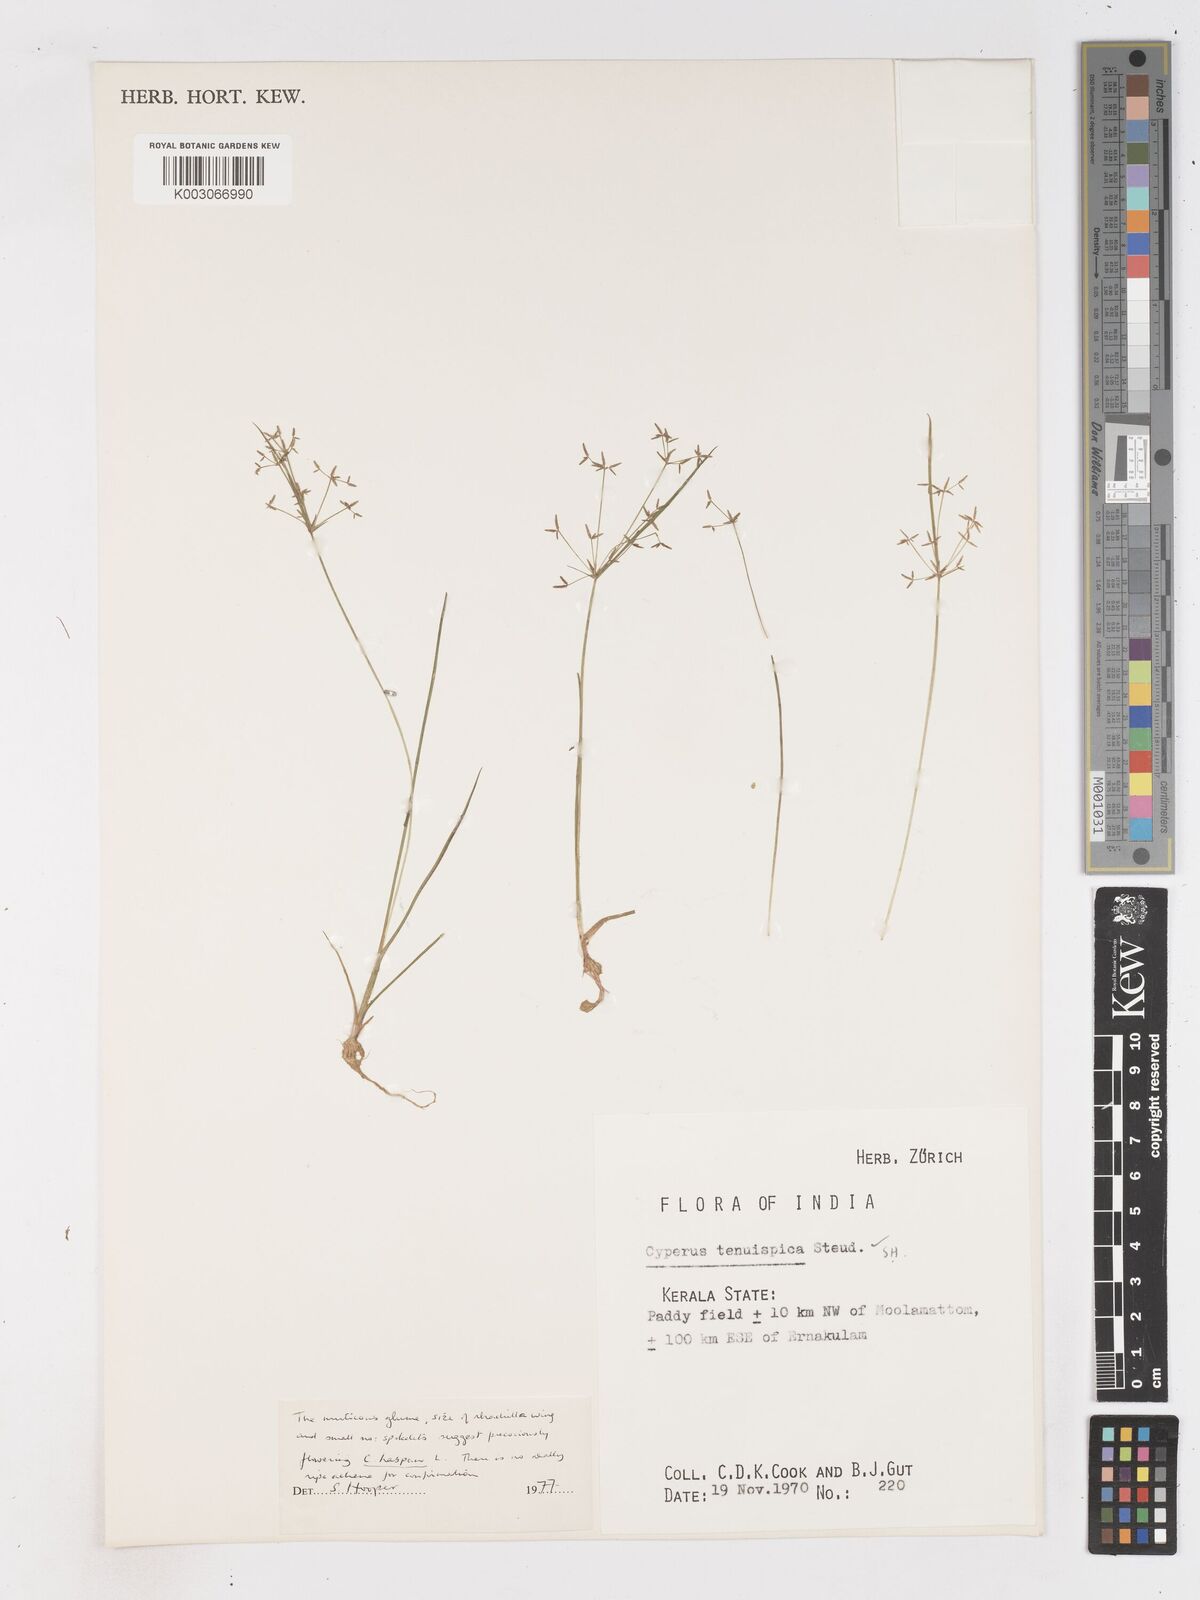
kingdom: Plantae
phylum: Tracheophyta
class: Liliopsida
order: Poales
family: Cyperaceae
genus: Cyperus
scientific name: Cyperus haspan
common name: Haspan flatsedge
